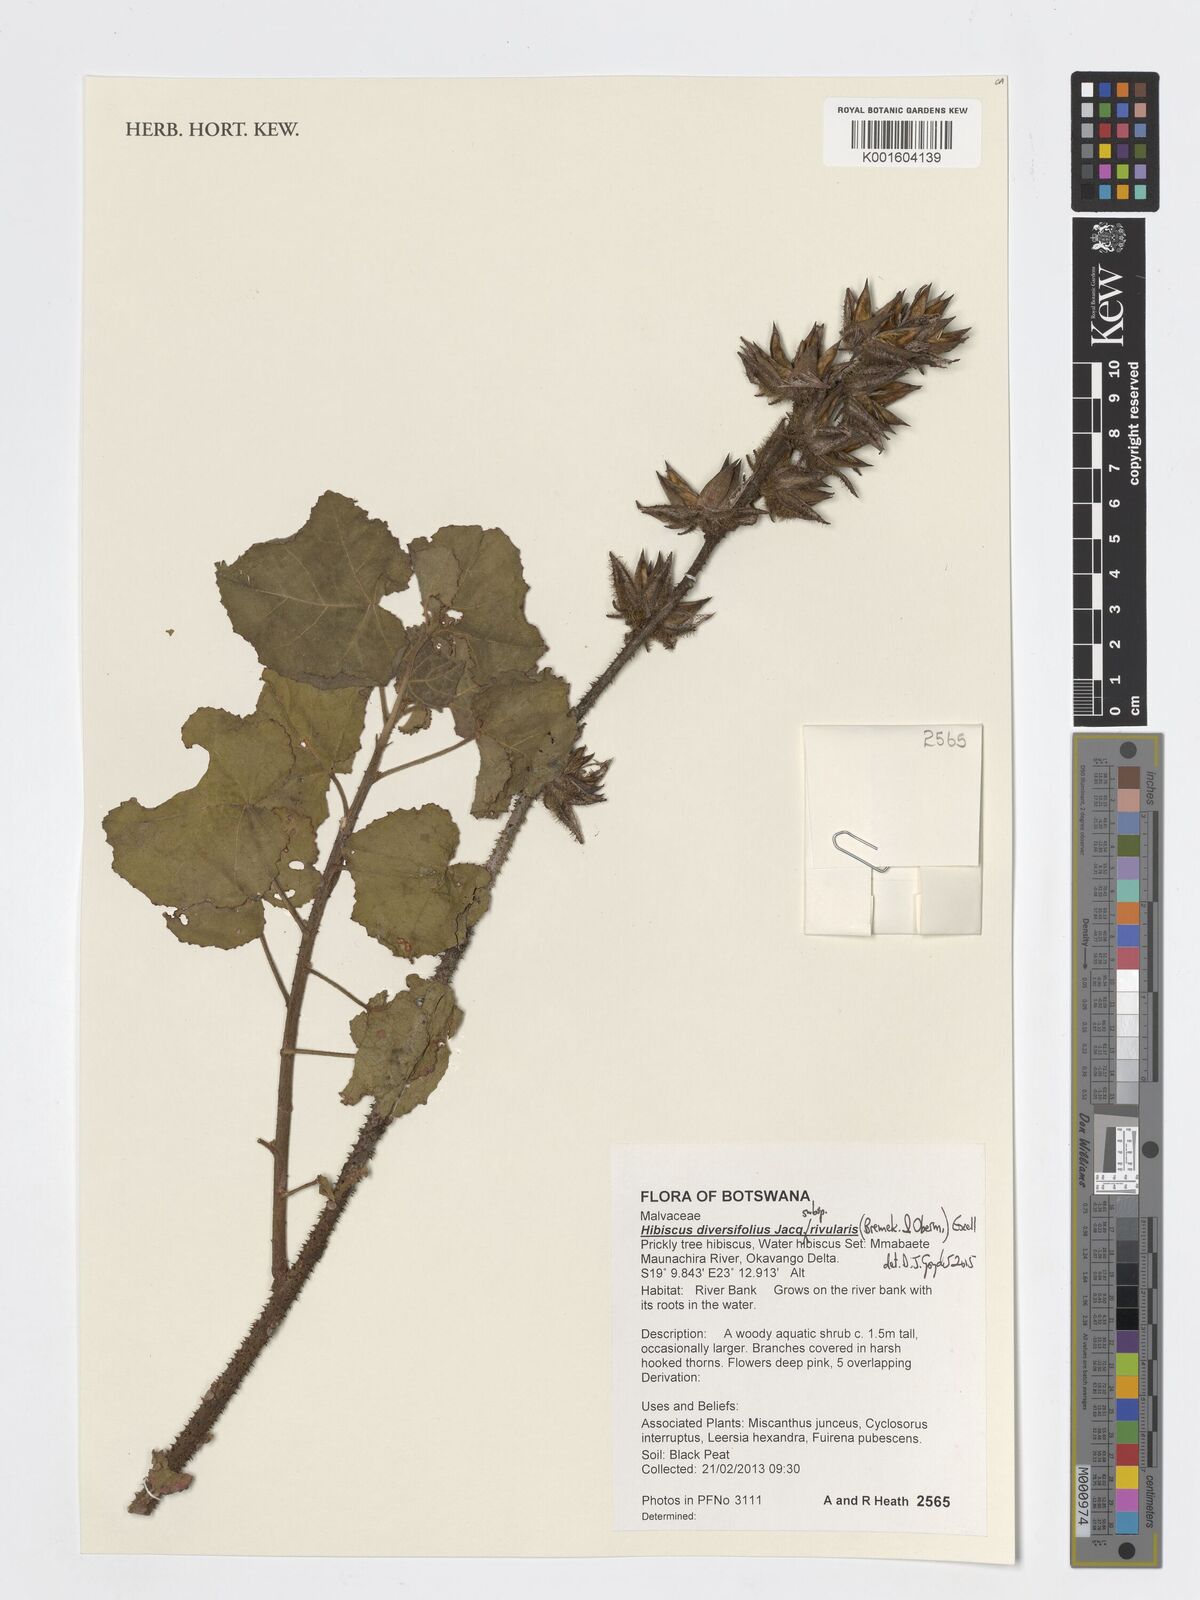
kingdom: Plantae
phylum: Tracheophyta
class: Magnoliopsida
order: Malvales
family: Malvaceae
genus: Hibiscus
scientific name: Hibiscus diversifolius
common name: Cape hibiscus
